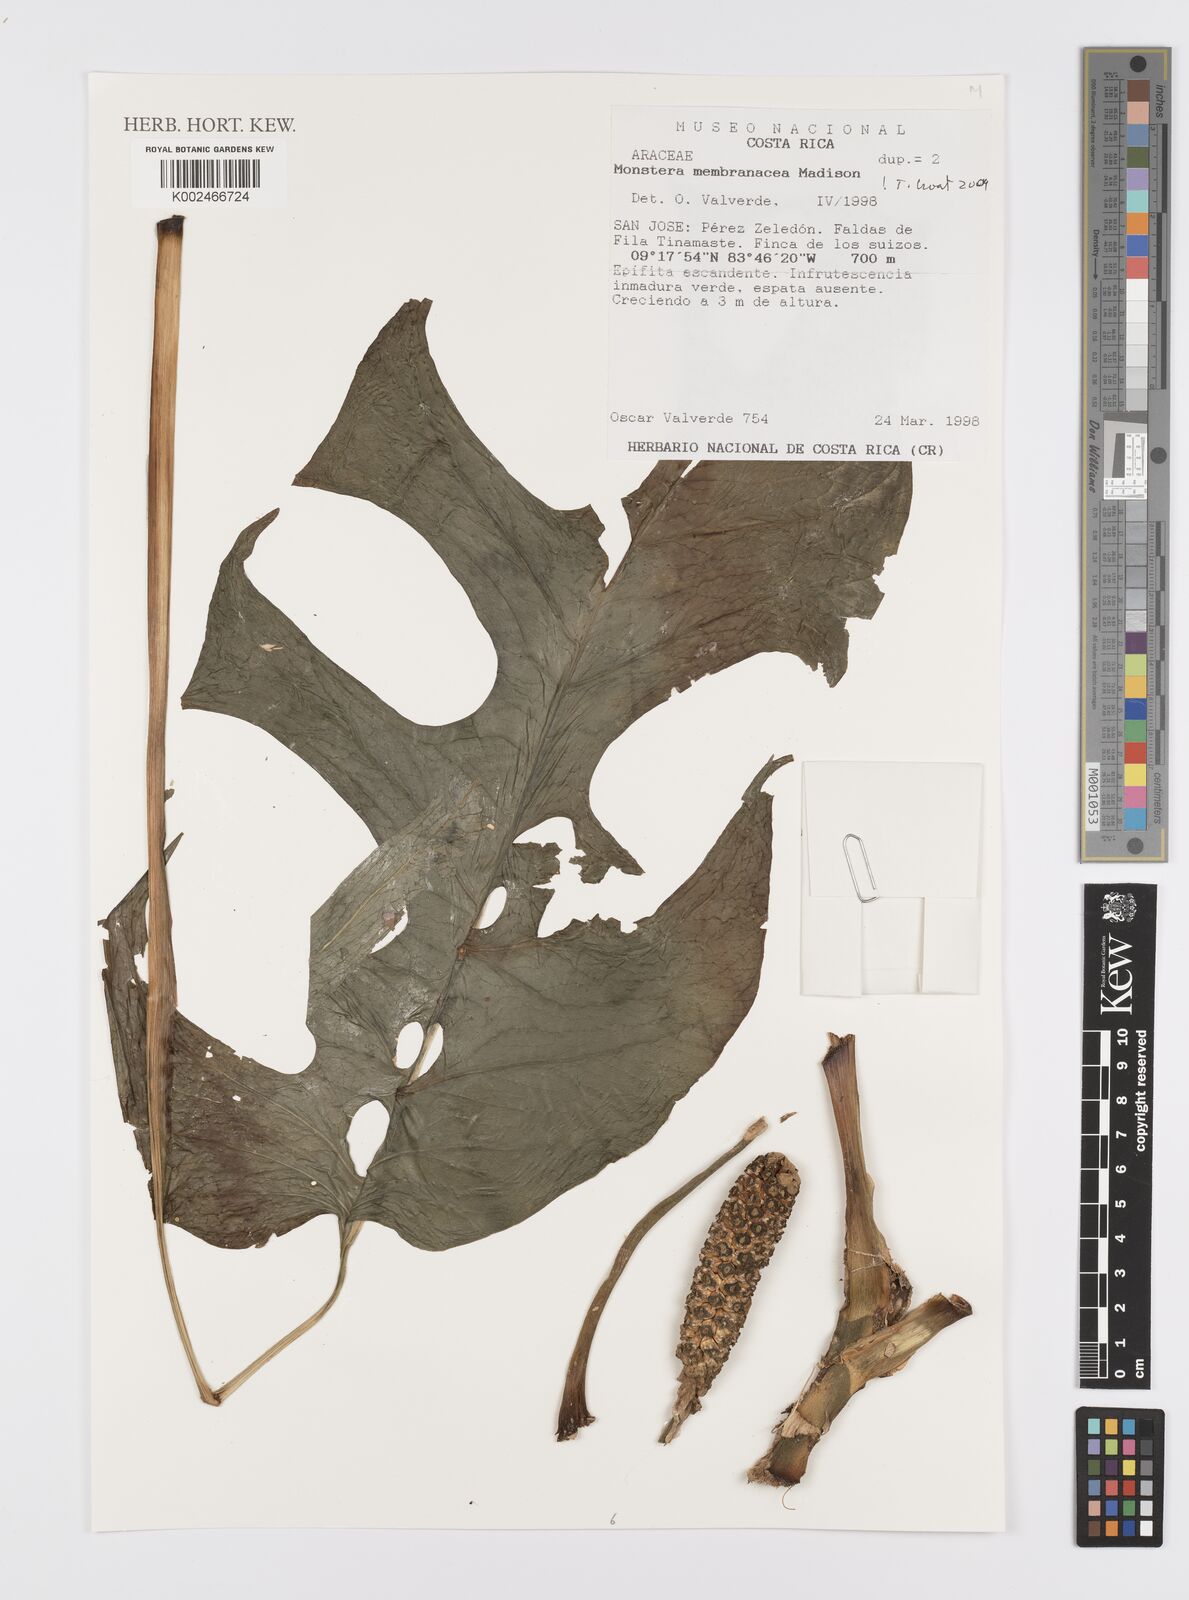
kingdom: Plantae
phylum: Tracheophyta
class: Liliopsida
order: Alismatales
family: Araceae
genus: Monstera
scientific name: Monstera membranacea
